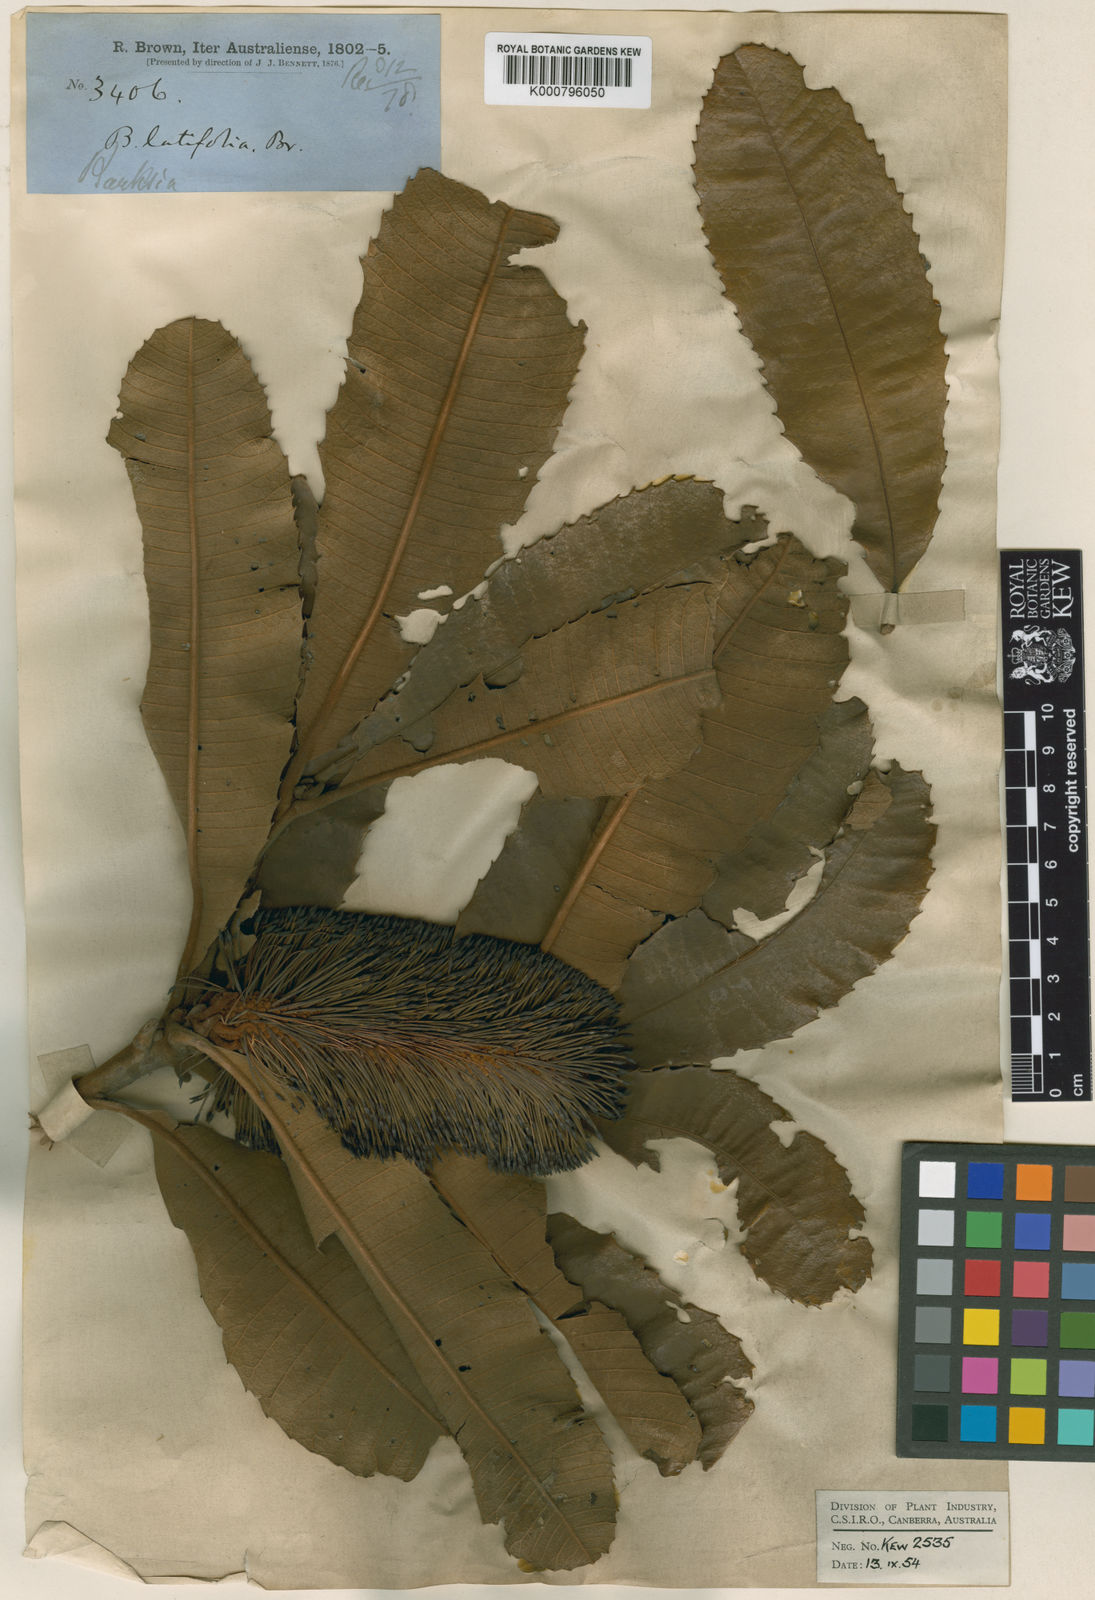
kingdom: Plantae
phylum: Tracheophyta
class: Magnoliopsida
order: Proteales
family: Proteaceae
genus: Banksia
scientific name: Banksia robur
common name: Broadleaf banksia
